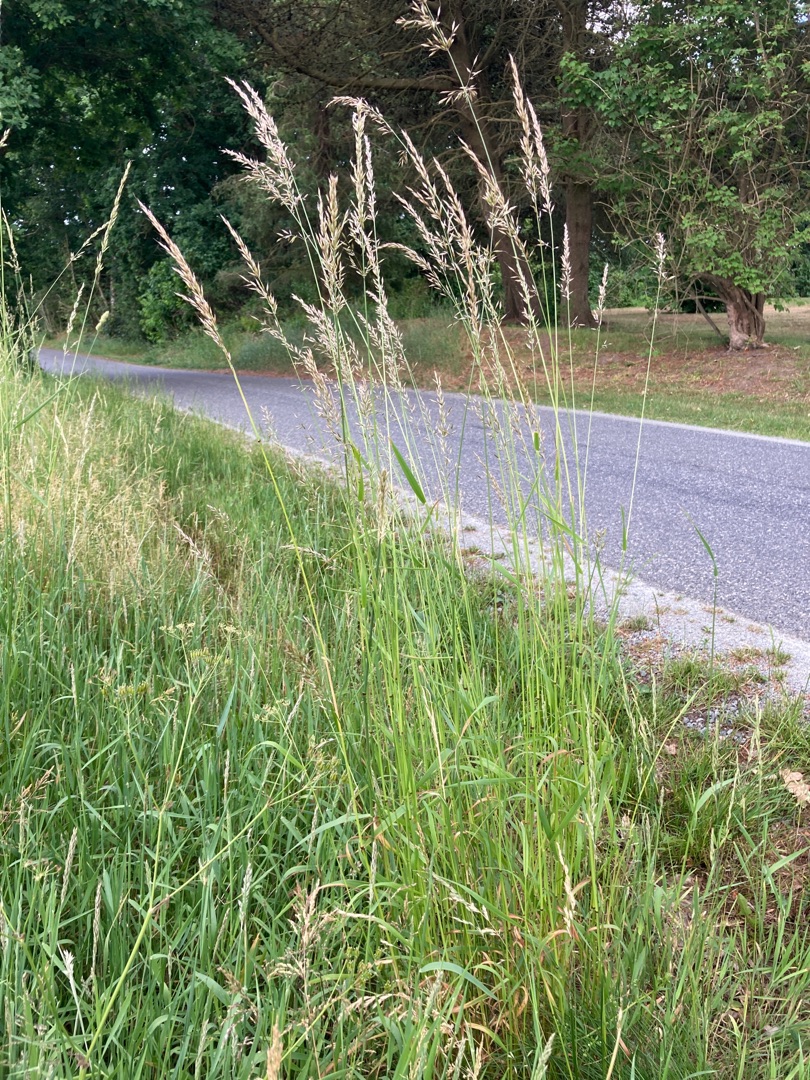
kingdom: Plantae
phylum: Tracheophyta
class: Liliopsida
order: Poales
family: Poaceae
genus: Arrhenatherum
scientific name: Arrhenatherum elatius
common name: Draphavre
